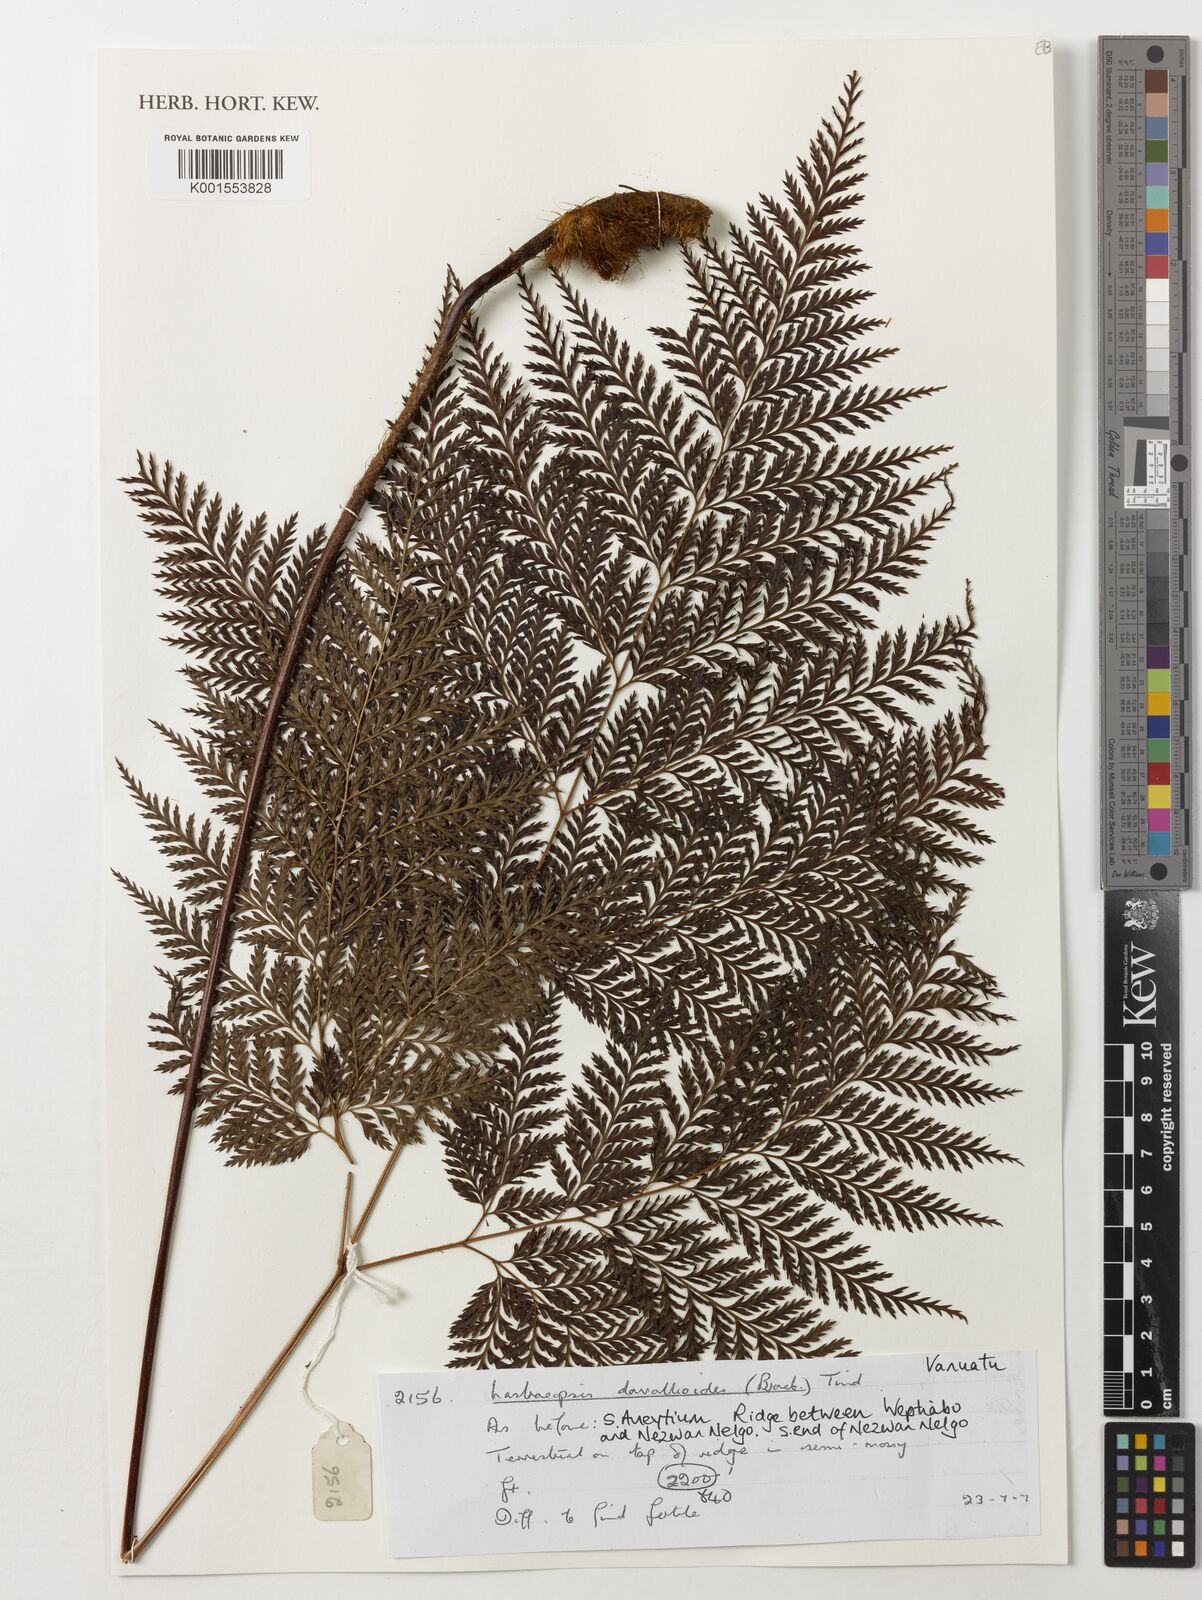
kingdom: Plantae
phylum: Tracheophyta
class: Polypodiopsida
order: Polypodiales
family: Dryopteridaceae
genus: Lastreopsis
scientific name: Lastreopsis davallioides
